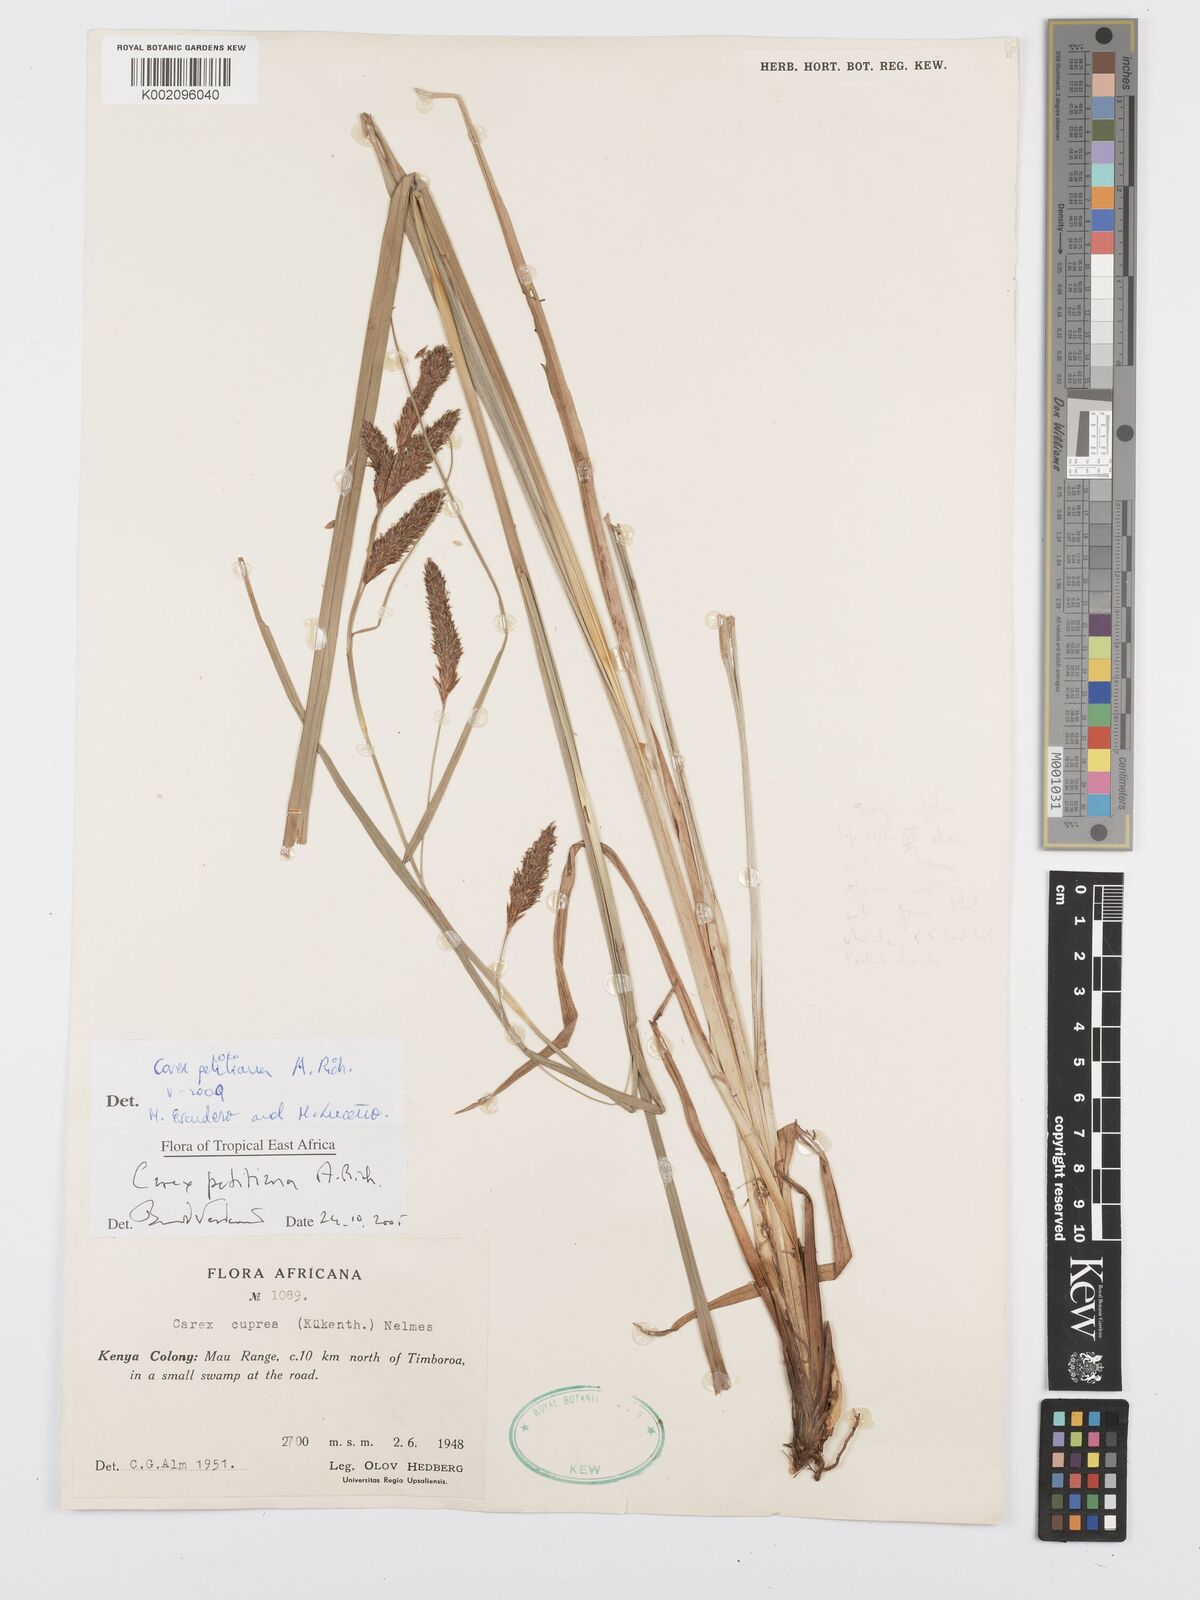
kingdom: Plantae
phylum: Tracheophyta
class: Liliopsida
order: Poales
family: Cyperaceae
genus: Carex
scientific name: Carex petitiana
